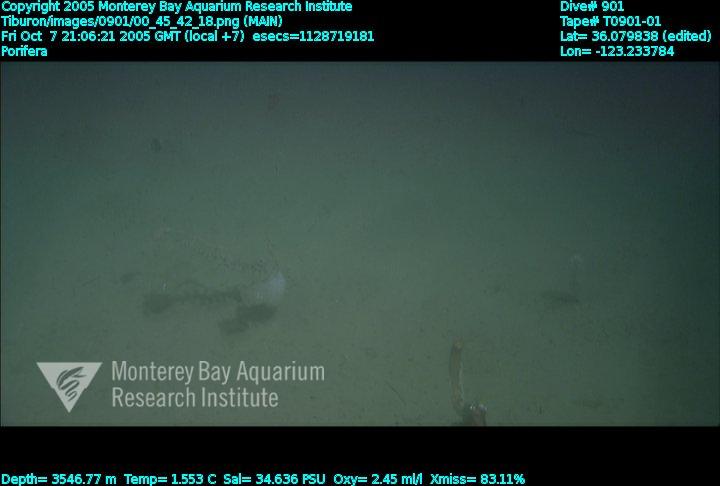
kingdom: Animalia
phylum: Porifera
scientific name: Porifera
